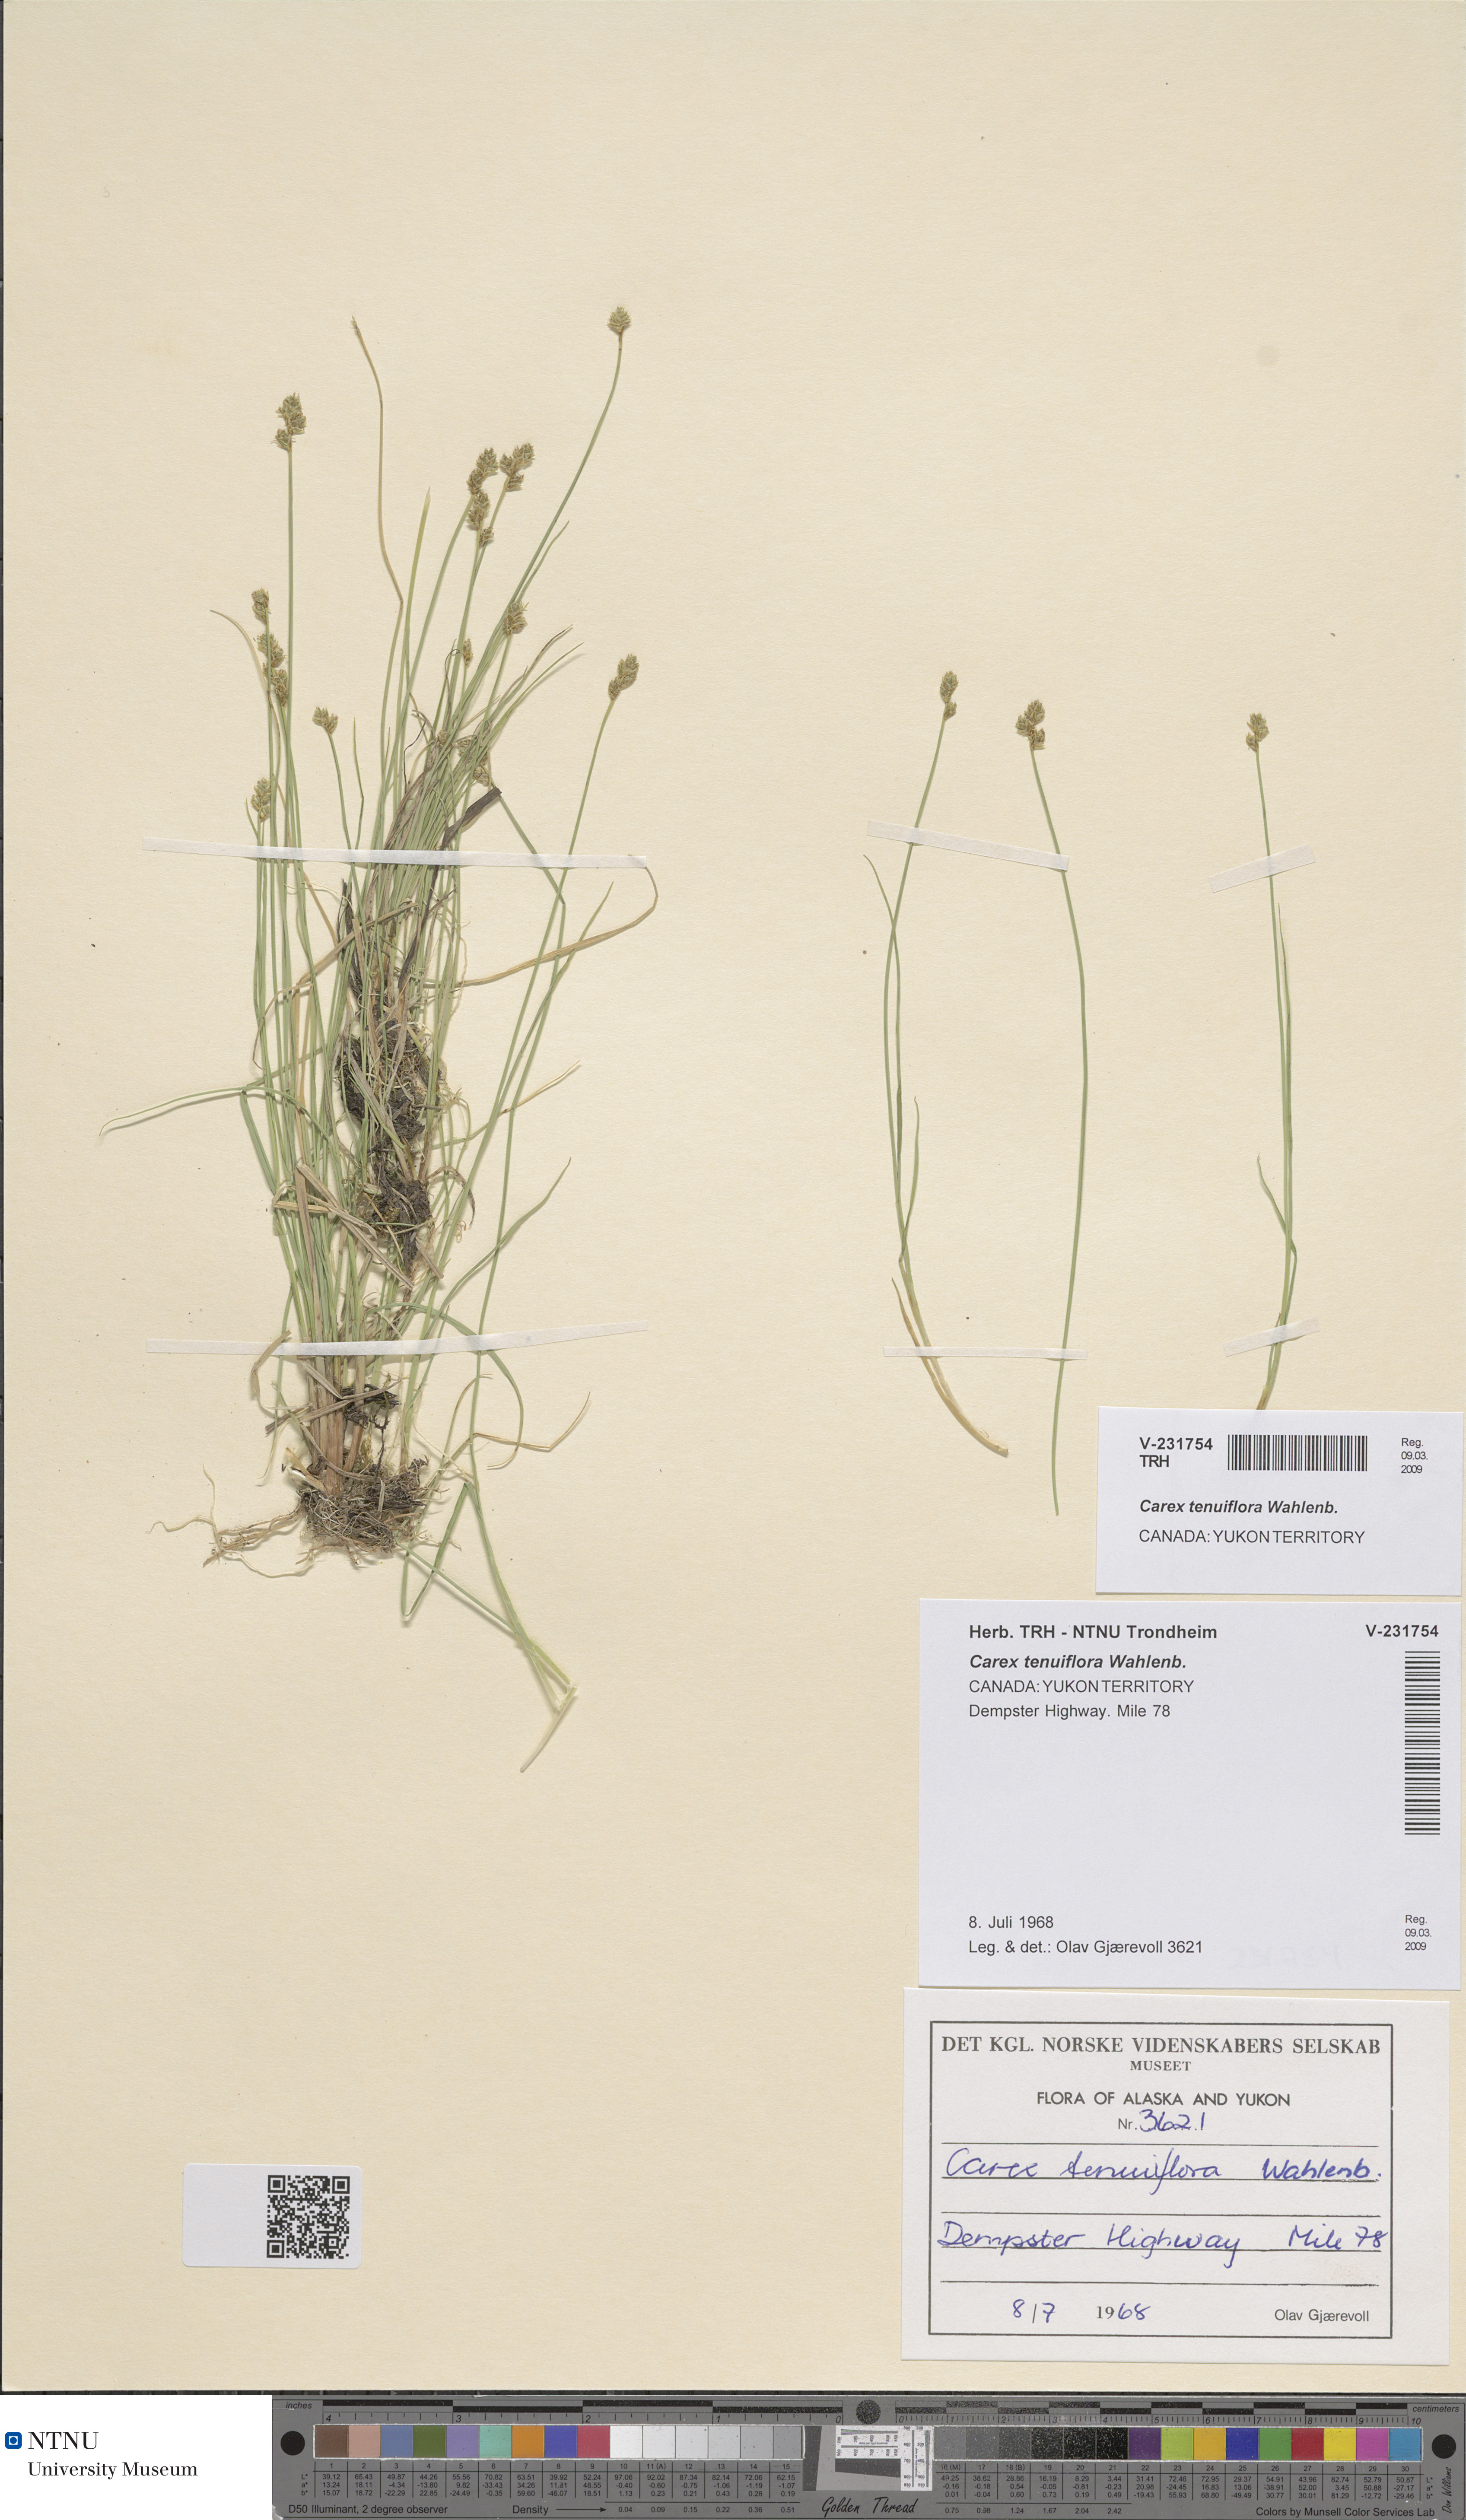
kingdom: Plantae
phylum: Tracheophyta
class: Liliopsida
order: Poales
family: Cyperaceae
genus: Carex
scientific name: Carex tenuiflora
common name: Sparse-flowered sedge
